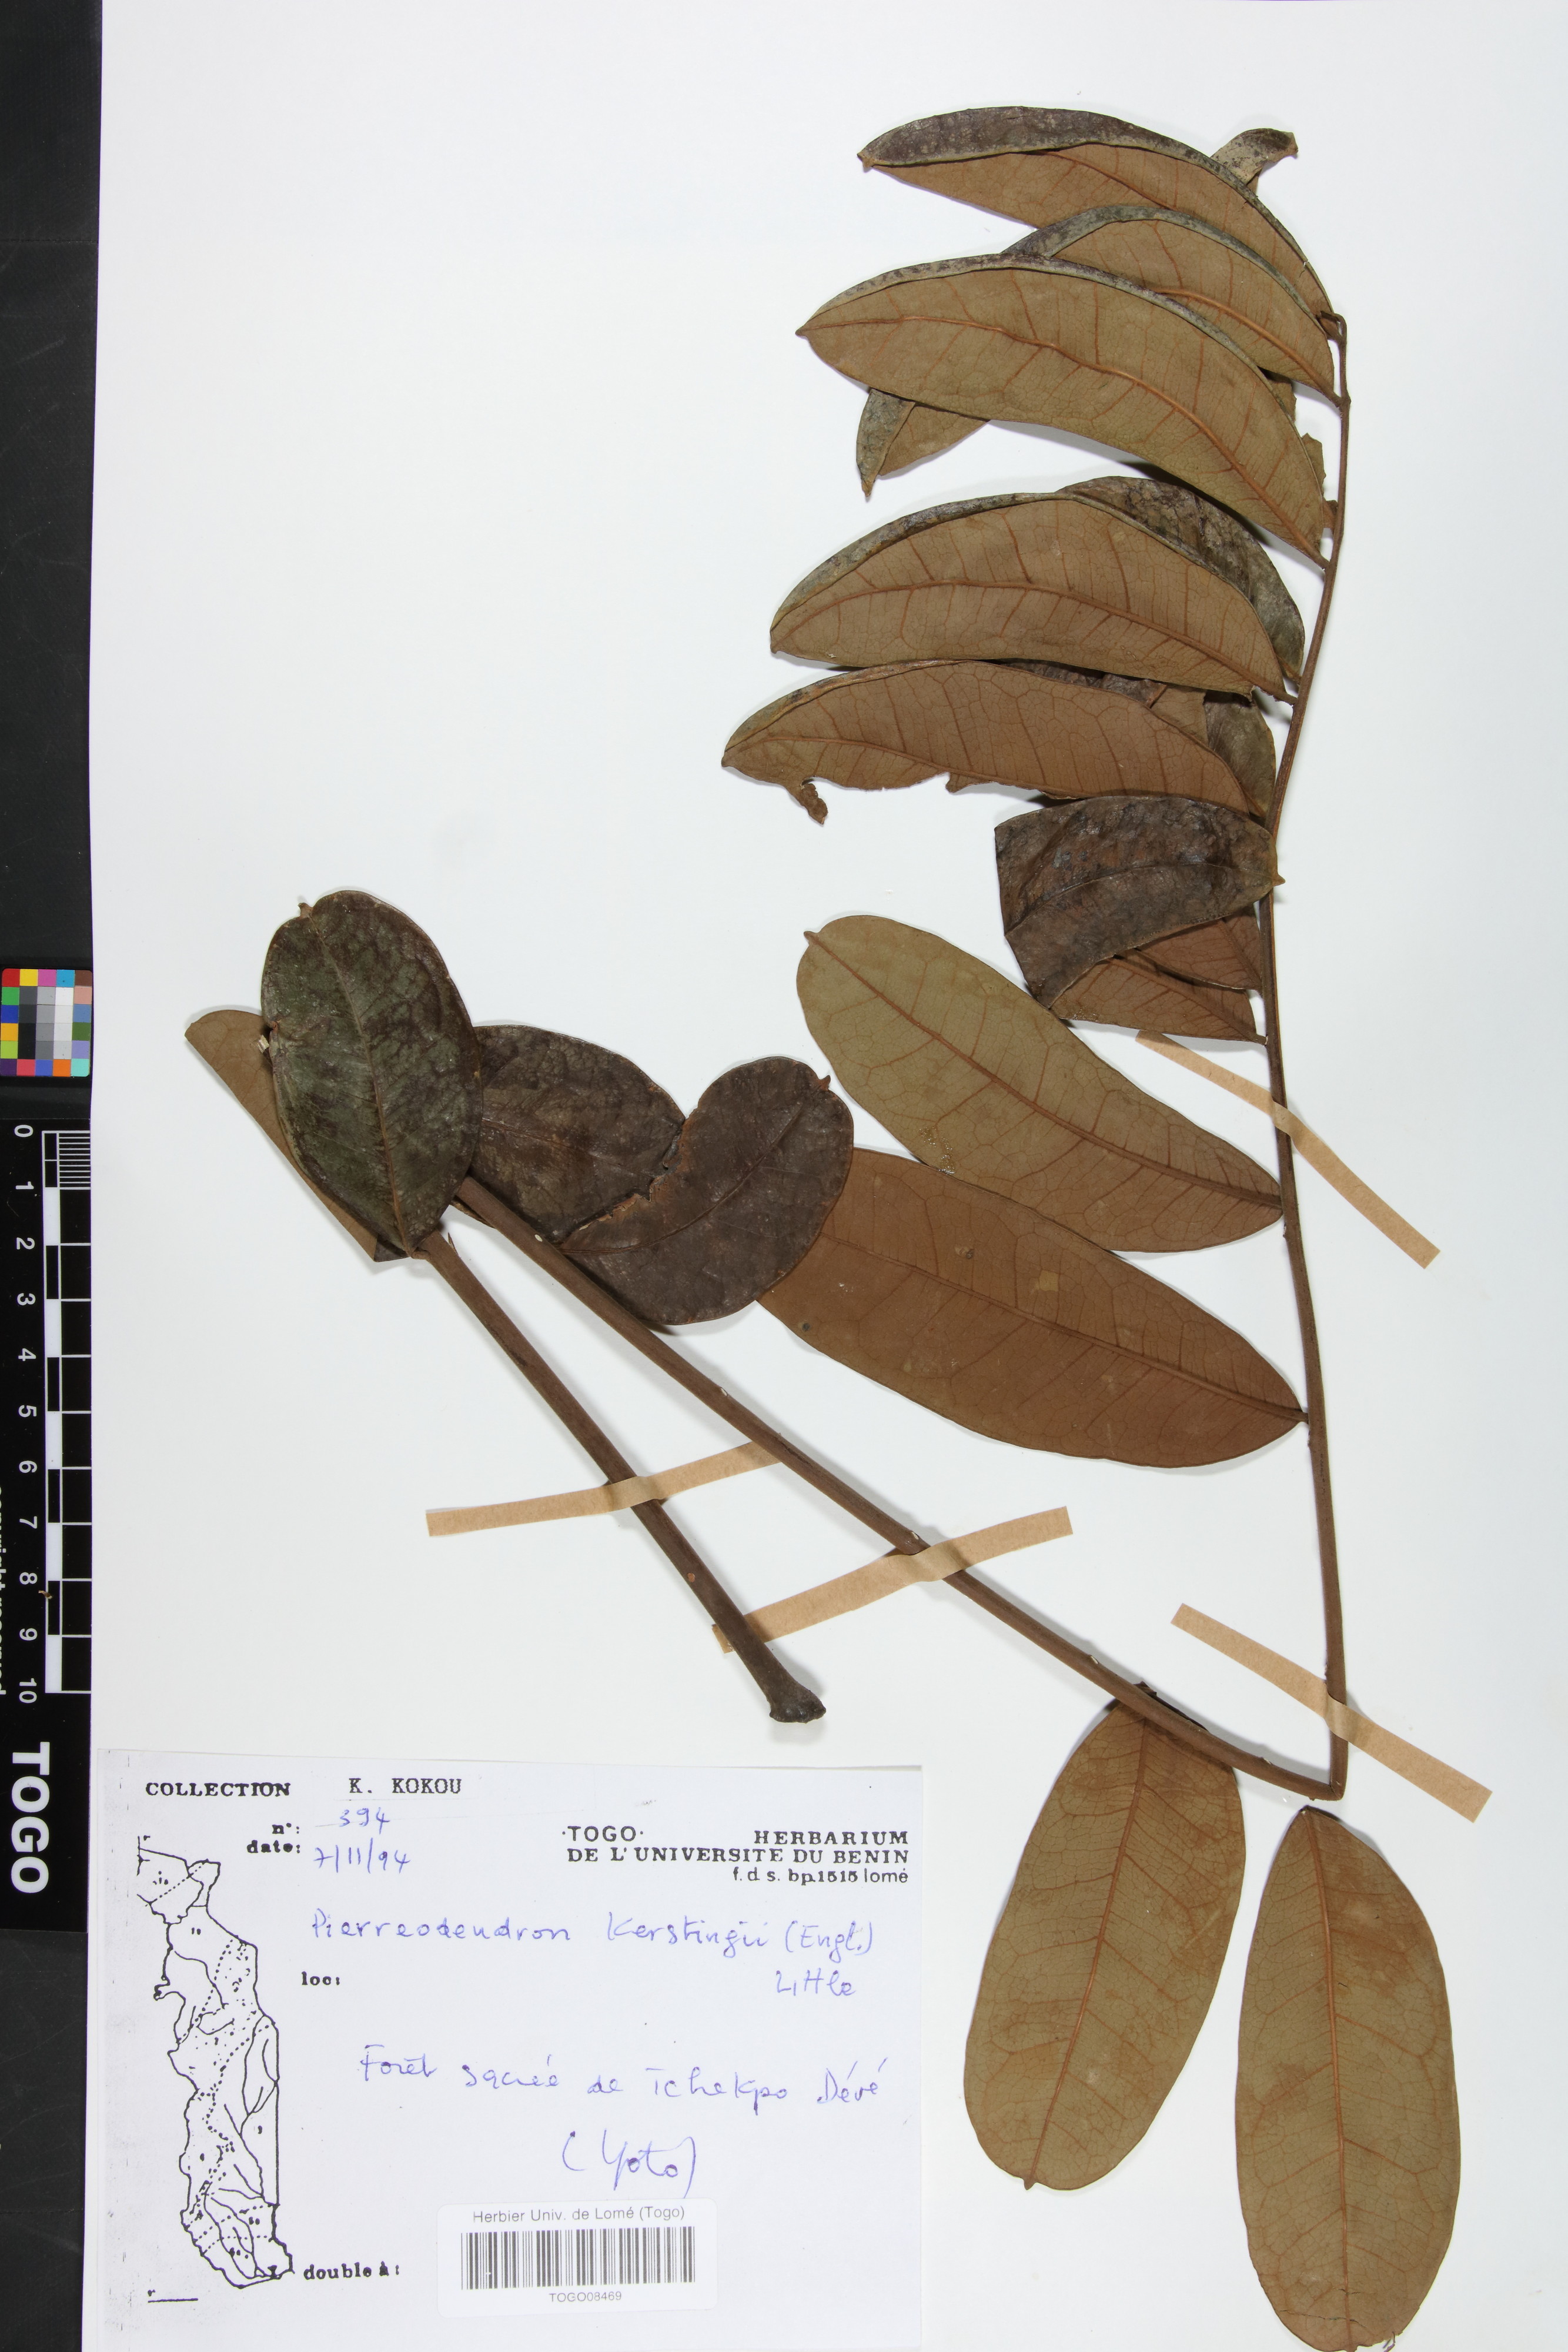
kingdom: Plantae
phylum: Tracheophyta
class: Magnoliopsida
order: Sapindales
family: Simaroubaceae
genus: Pierreodendron
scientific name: Pierreodendron kerstingii
